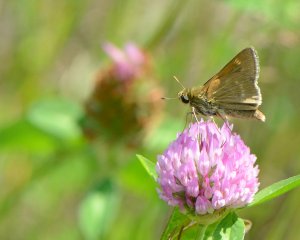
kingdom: Animalia
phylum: Arthropoda
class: Insecta
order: Lepidoptera
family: Hesperiidae
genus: Polites
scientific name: Polites
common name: Crossline Skipper
